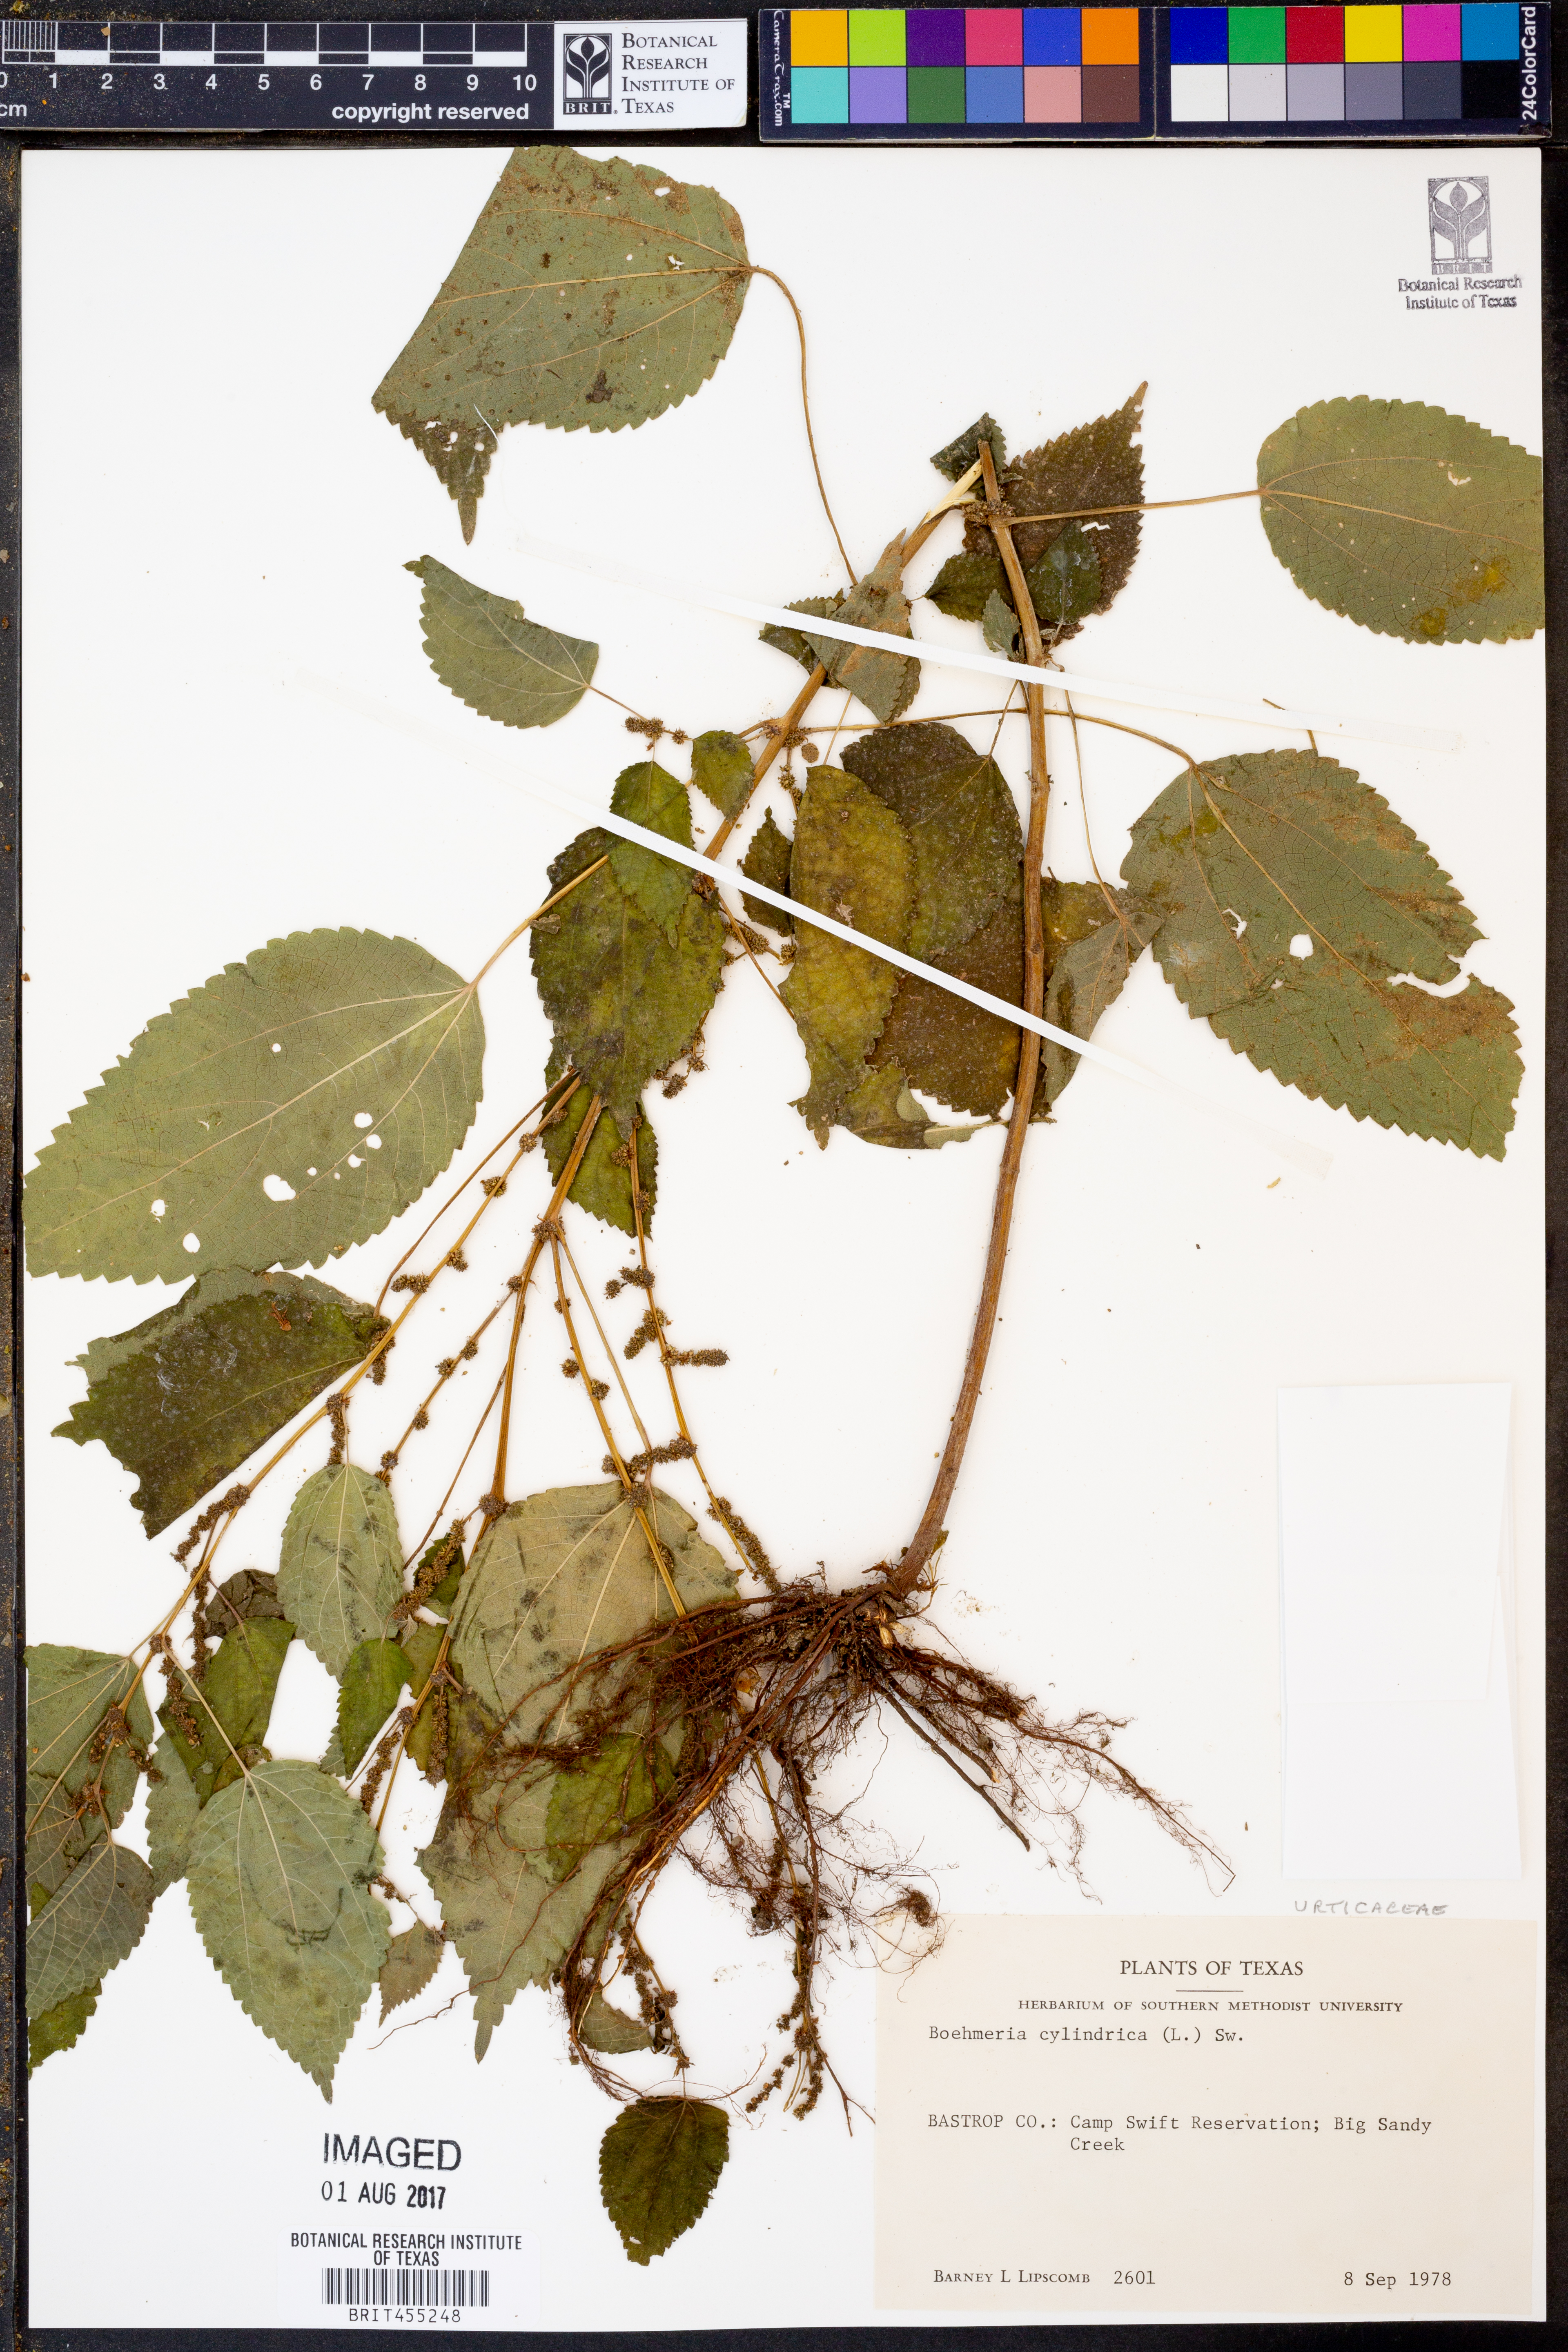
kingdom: Plantae
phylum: Tracheophyta
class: Magnoliopsida
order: Rosales
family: Urticaceae
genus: Boehmeria
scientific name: Boehmeria cylindrica
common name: Bog-hemp
